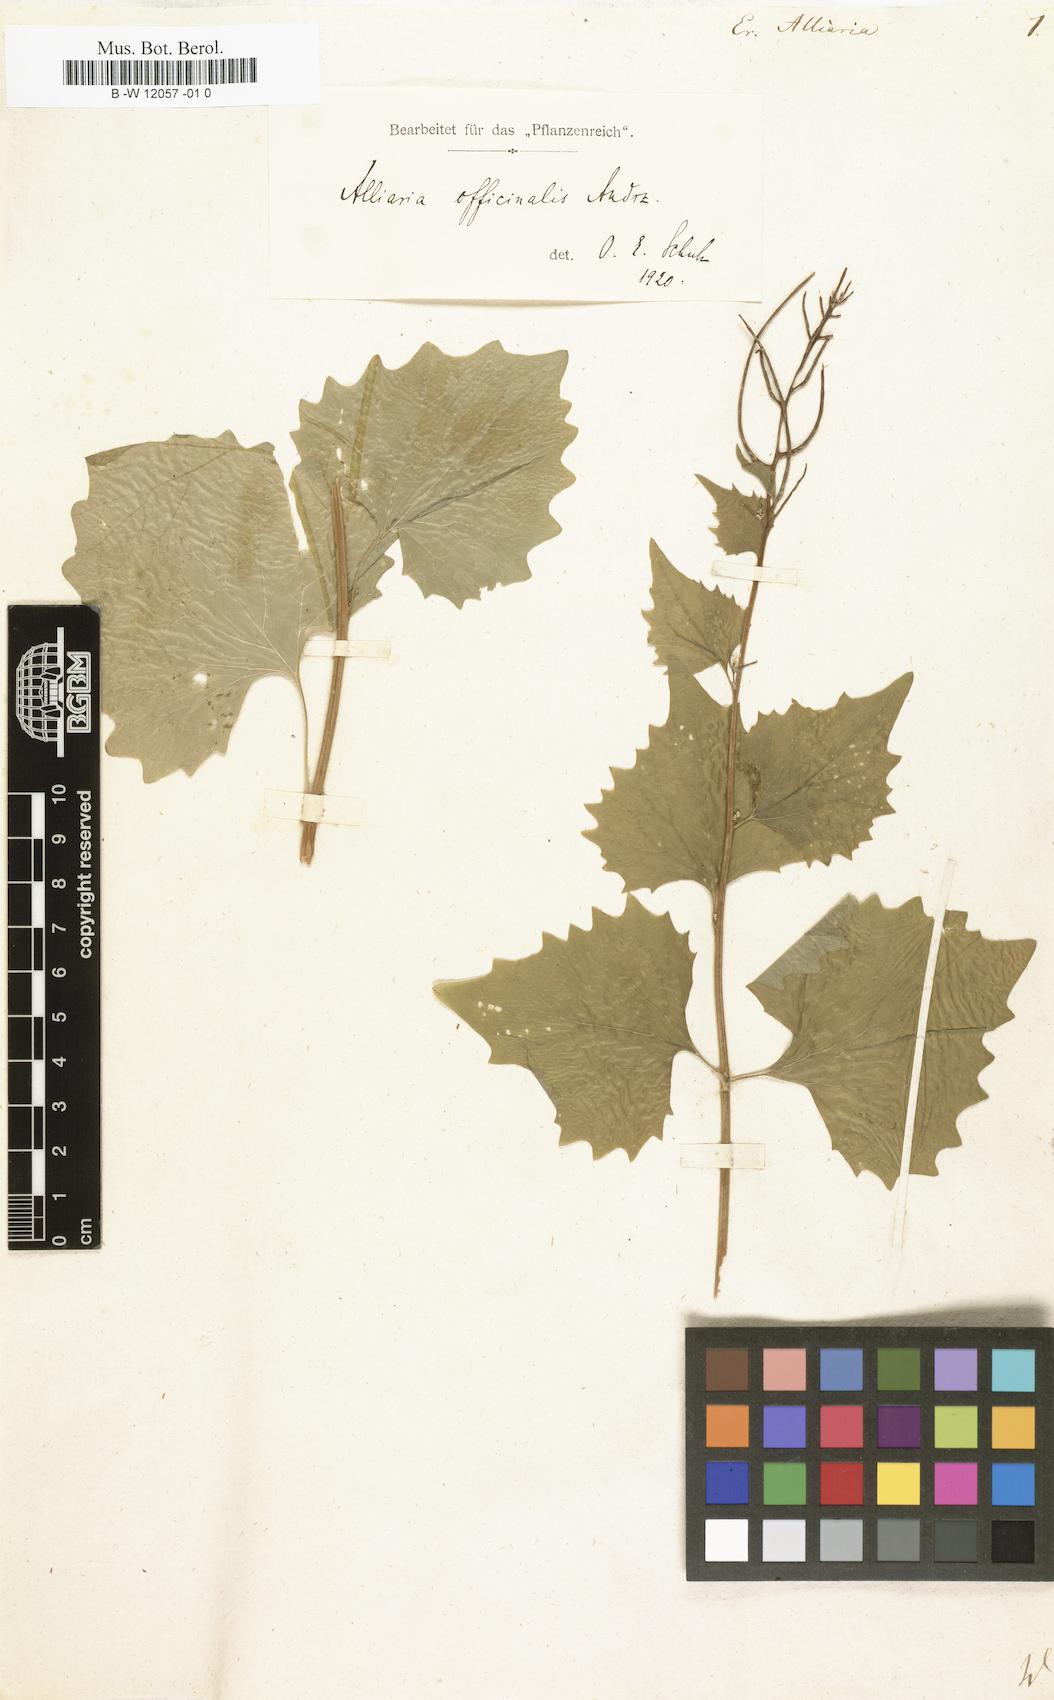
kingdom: Plantae
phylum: Tracheophyta
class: Magnoliopsida
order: Brassicales
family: Brassicaceae
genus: Alliaria
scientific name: Alliaria petiolata
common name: Garlic mustard
